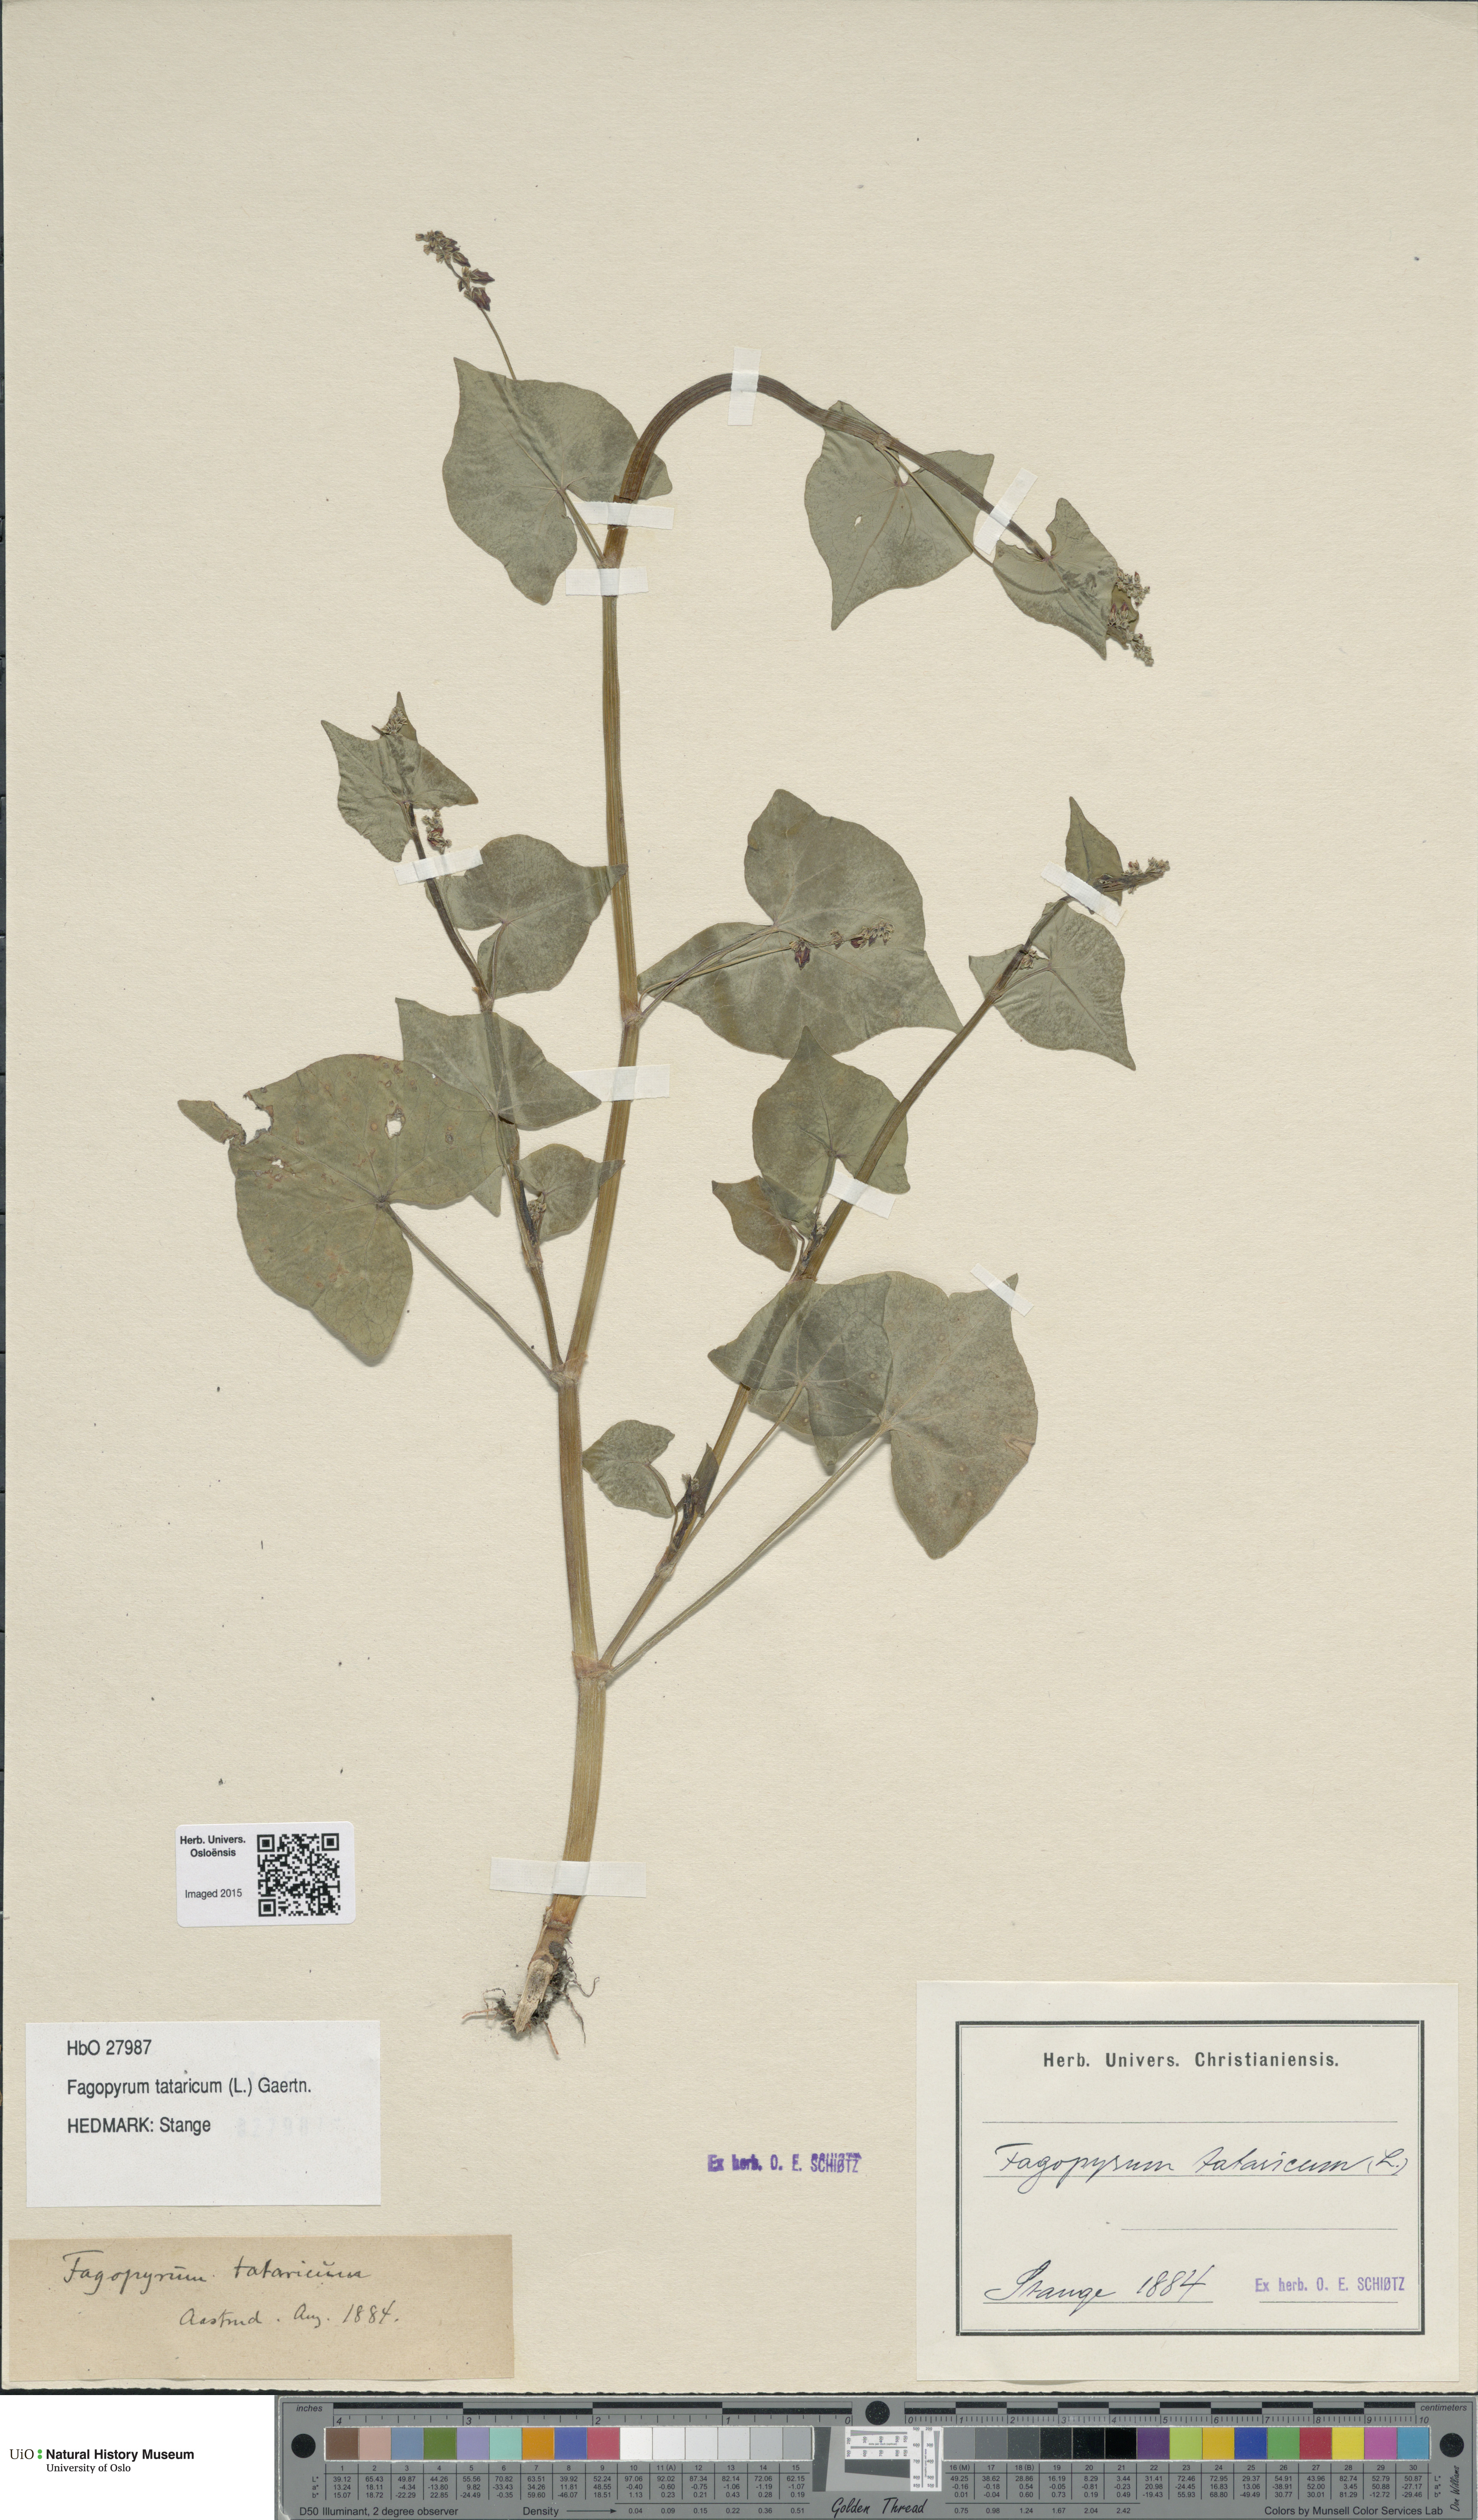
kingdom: Plantae
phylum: Tracheophyta
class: Magnoliopsida
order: Caryophyllales
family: Polygonaceae
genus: Fagopyrum
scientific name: Fagopyrum tataricum
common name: Green buckwheat
